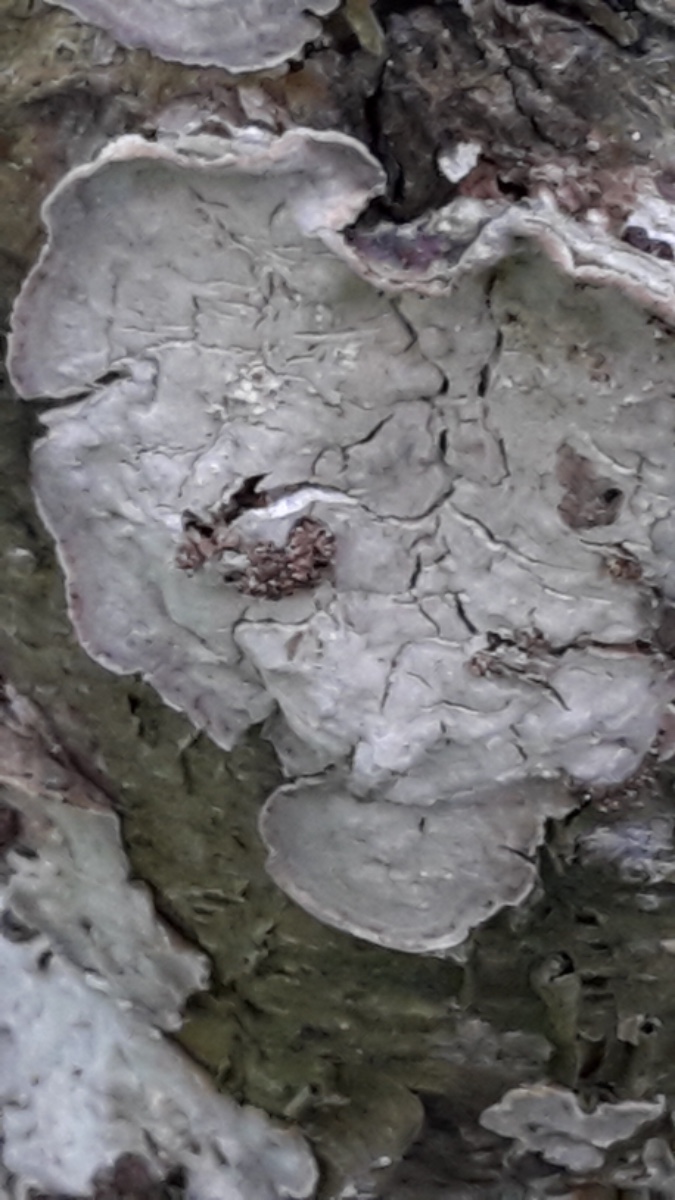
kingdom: Fungi
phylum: Basidiomycota
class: Agaricomycetes
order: Russulales
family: Stereaceae
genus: Stereum
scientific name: Stereum rugosum
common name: rynket lædersvamp
